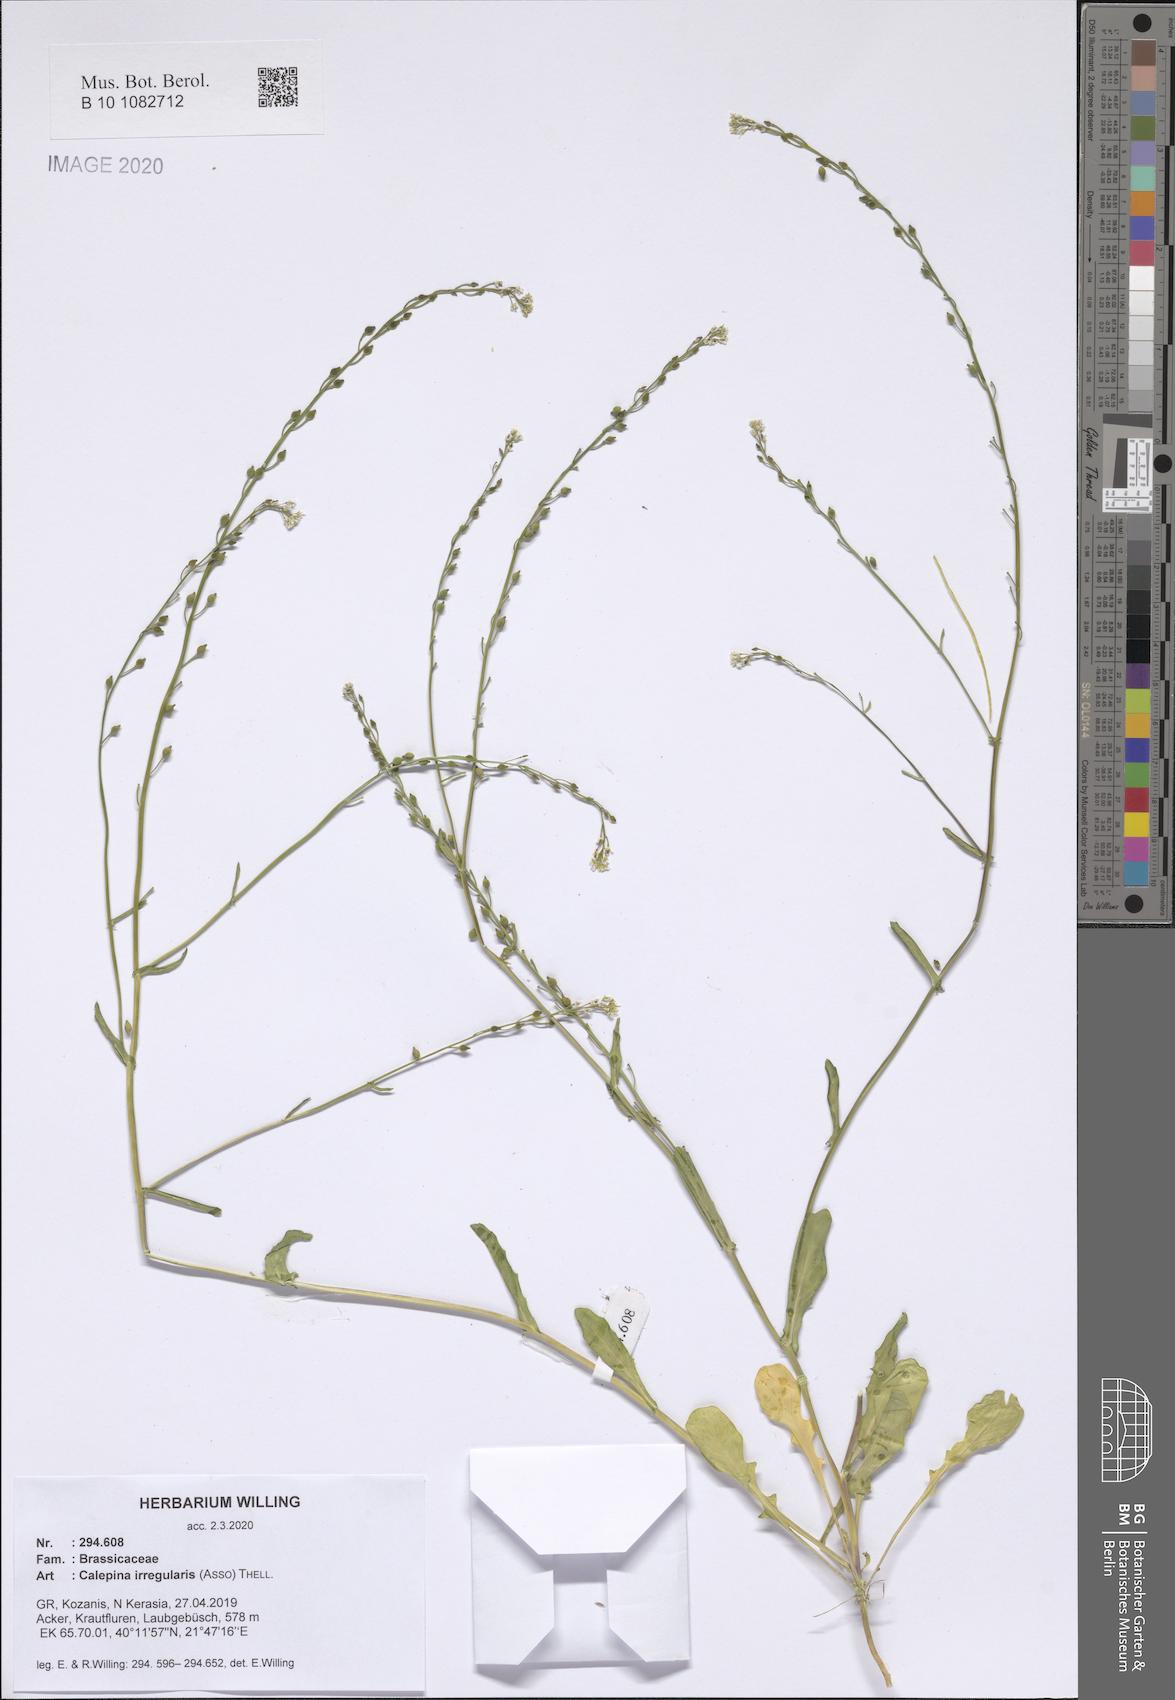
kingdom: Plantae
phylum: Tracheophyta
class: Magnoliopsida
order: Brassicales
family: Brassicaceae
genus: Calepina
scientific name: Calepina irregularis
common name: White ballmustard
